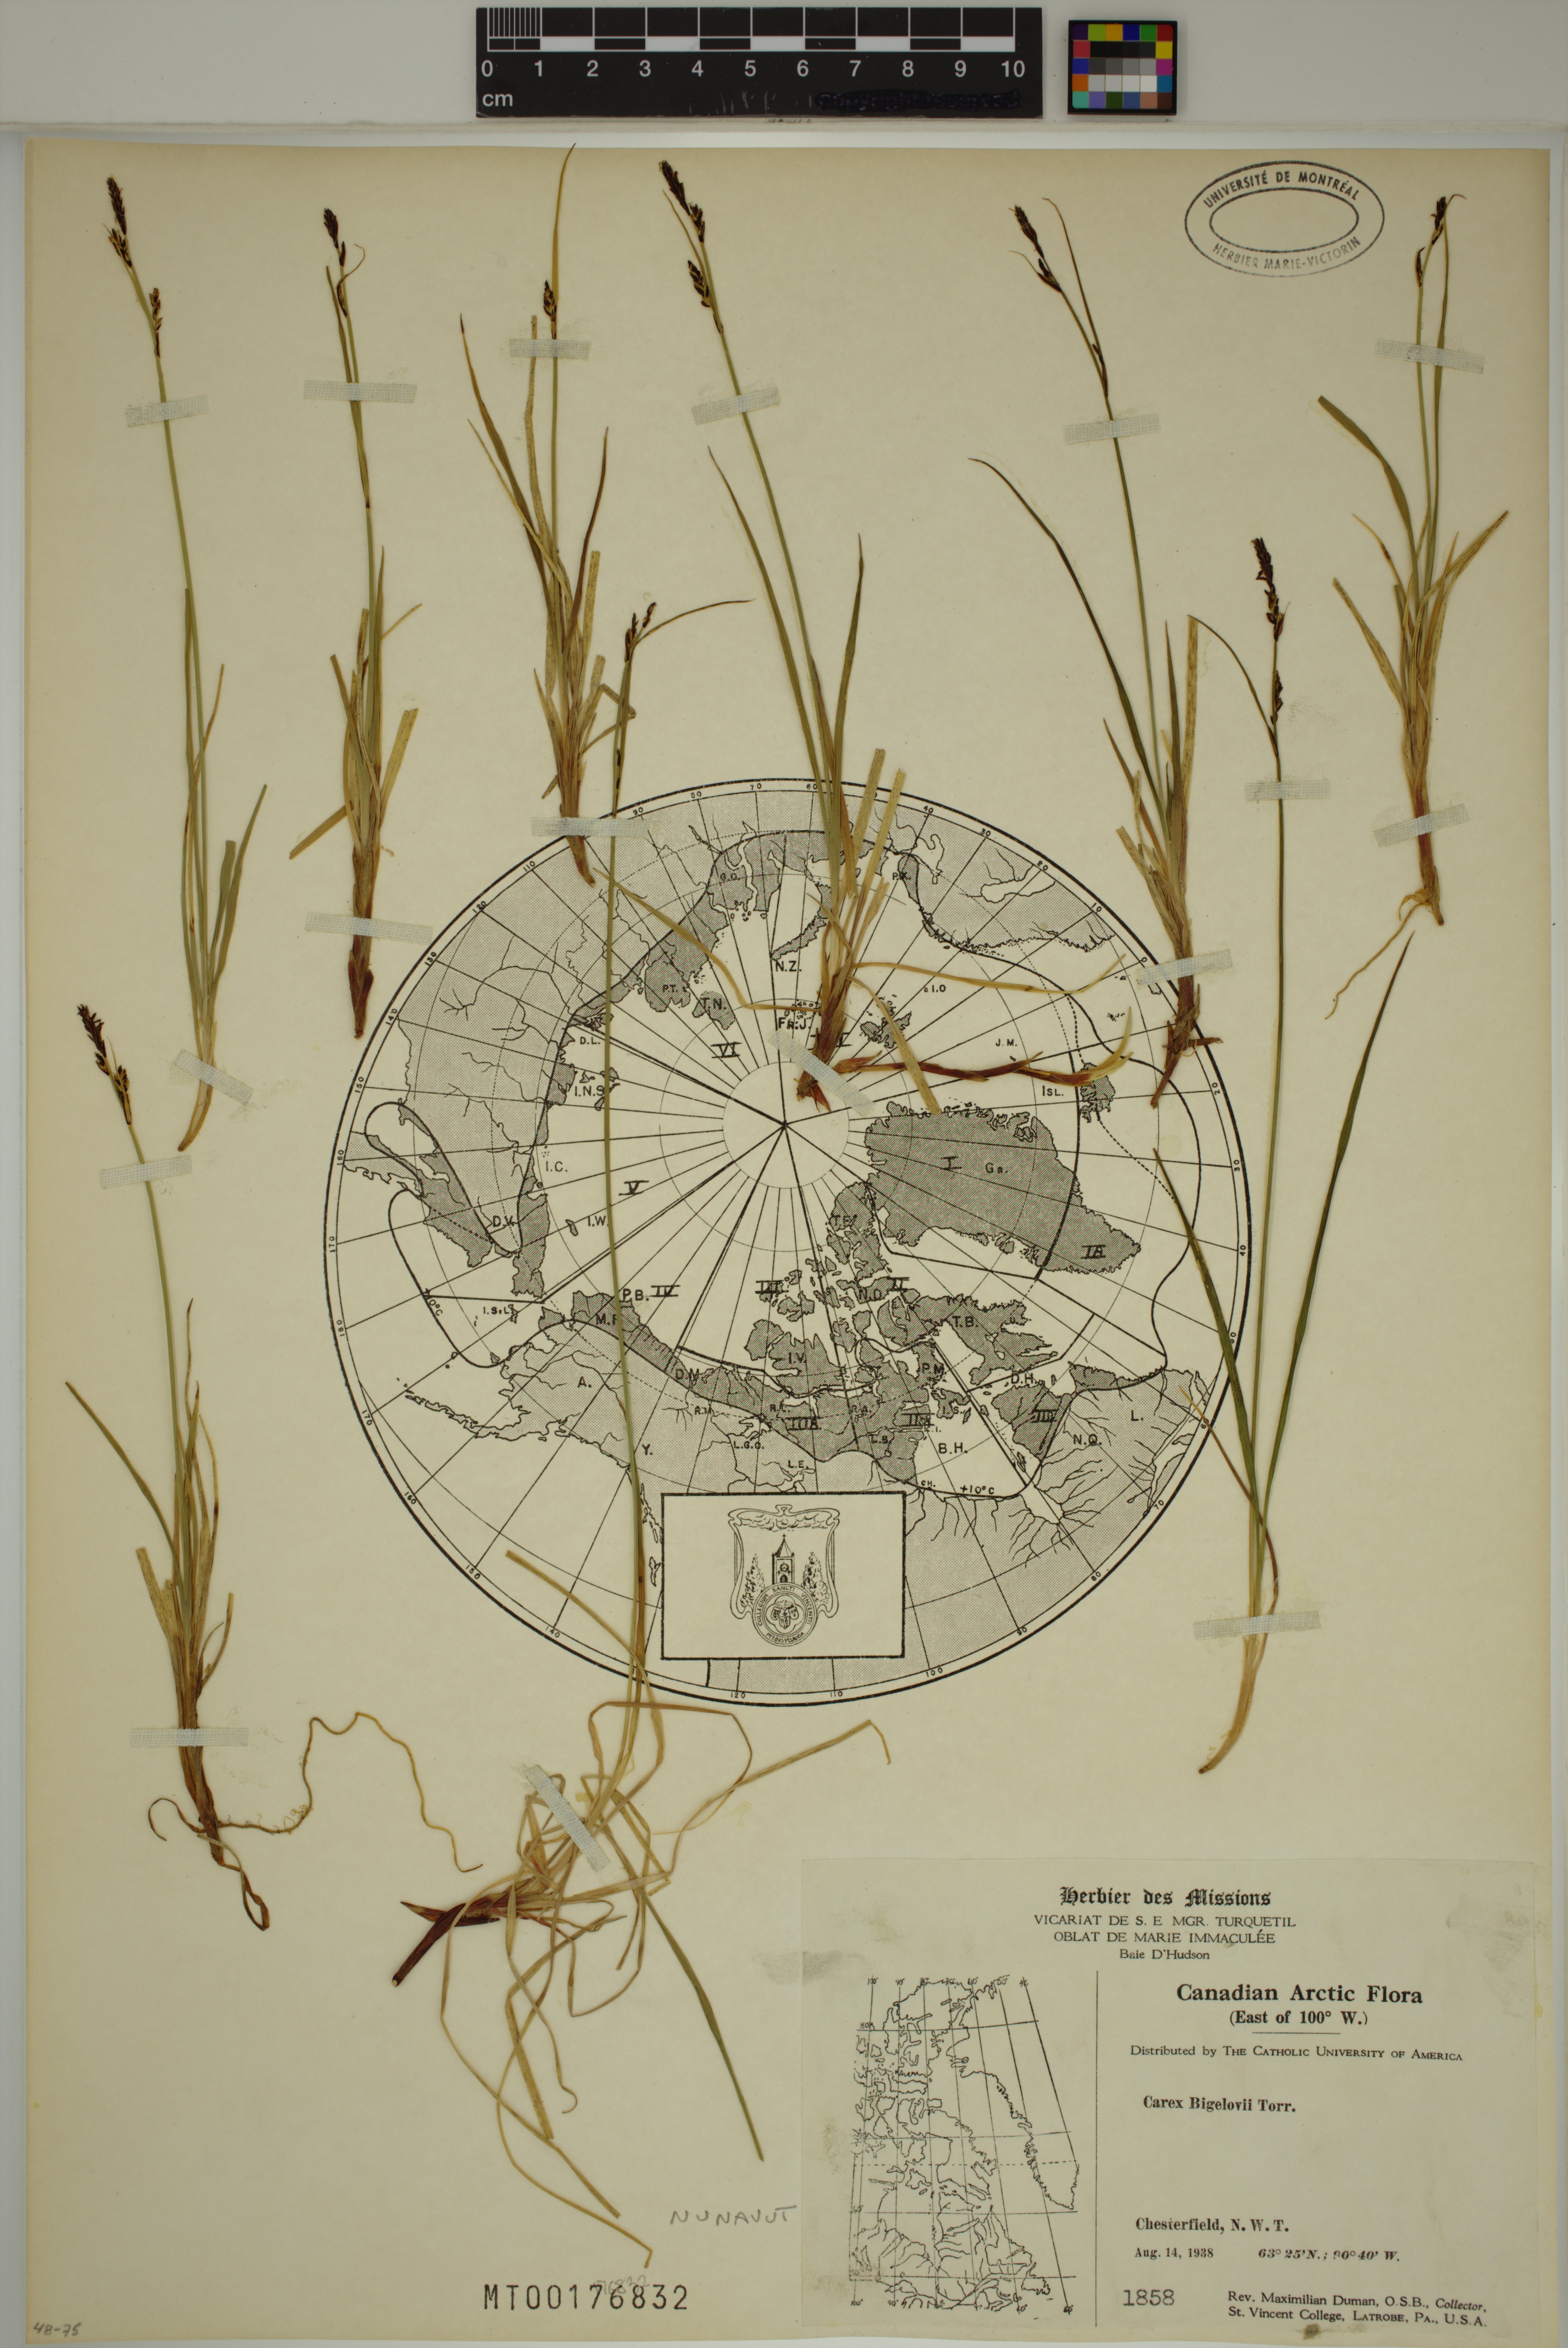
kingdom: Plantae
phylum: Tracheophyta
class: Liliopsida
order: Poales
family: Cyperaceae
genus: Carex
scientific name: Carex bigelowii
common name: Stiff sedge
